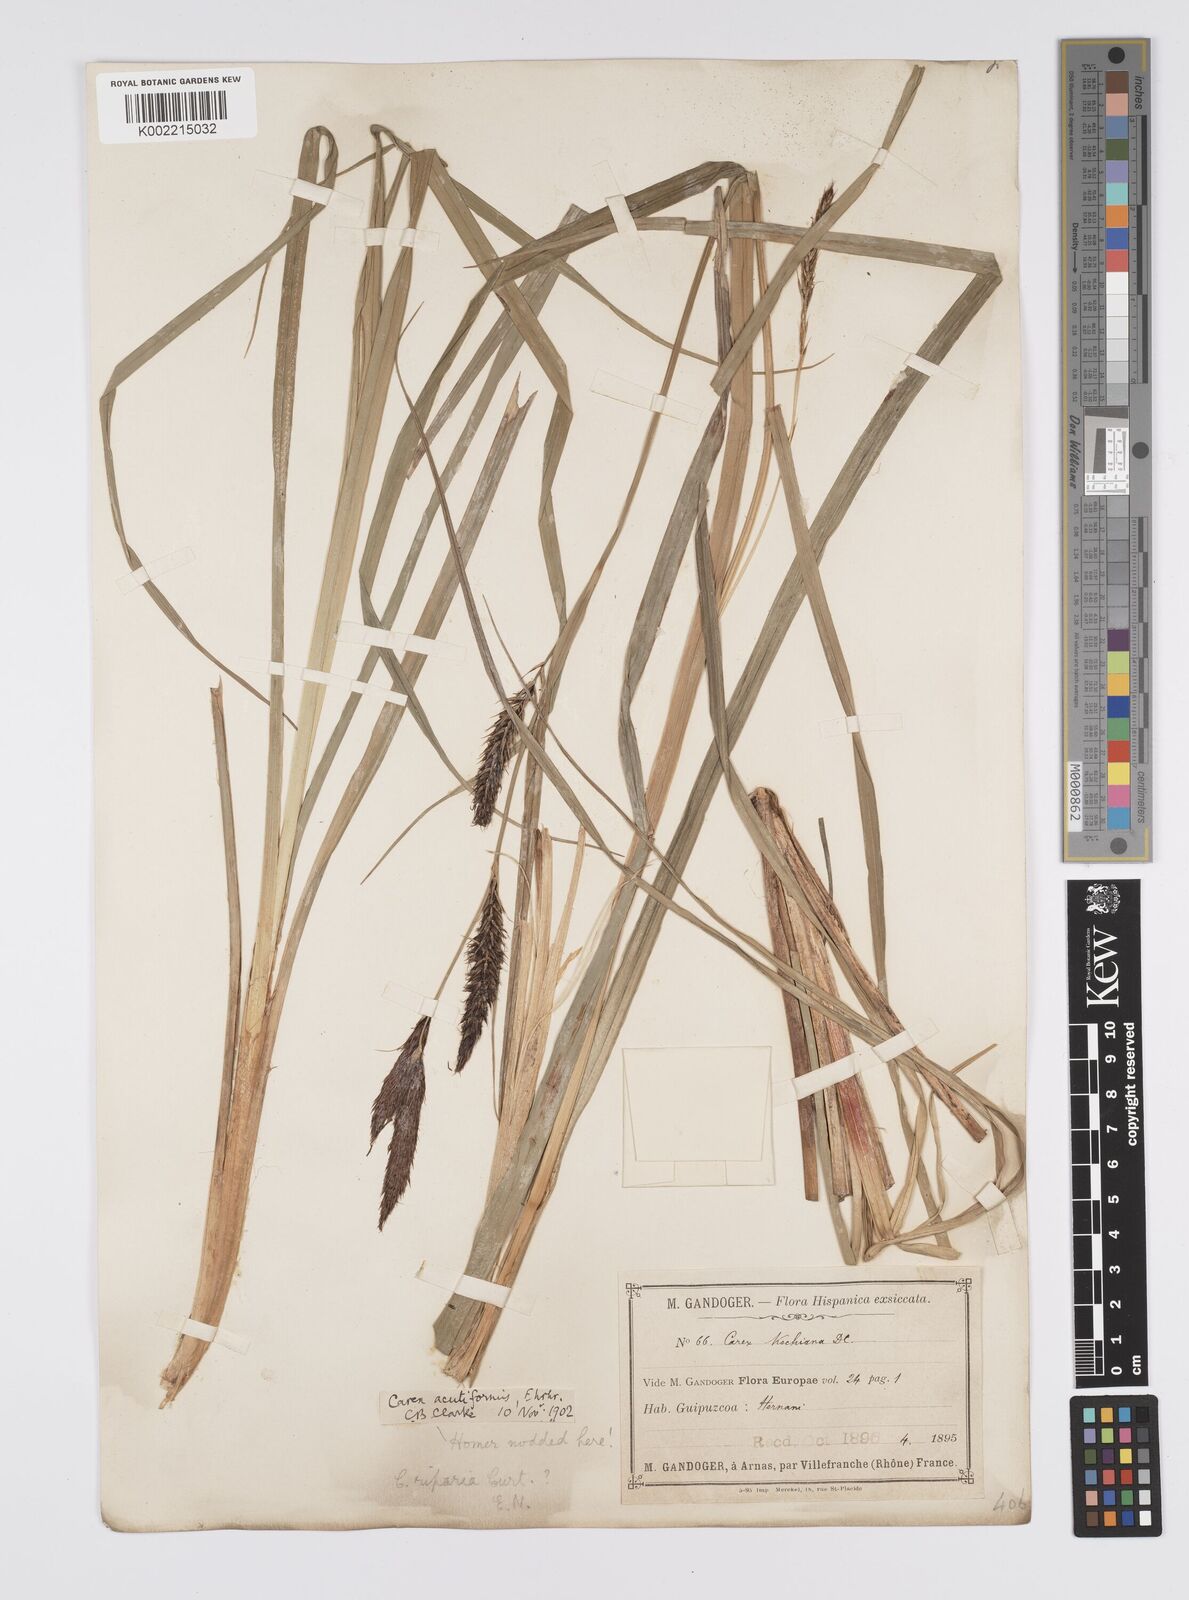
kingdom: Plantae
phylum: Tracheophyta
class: Liliopsida
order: Poales
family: Cyperaceae
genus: Carex
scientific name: Carex riparia
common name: Greater pond-sedge
